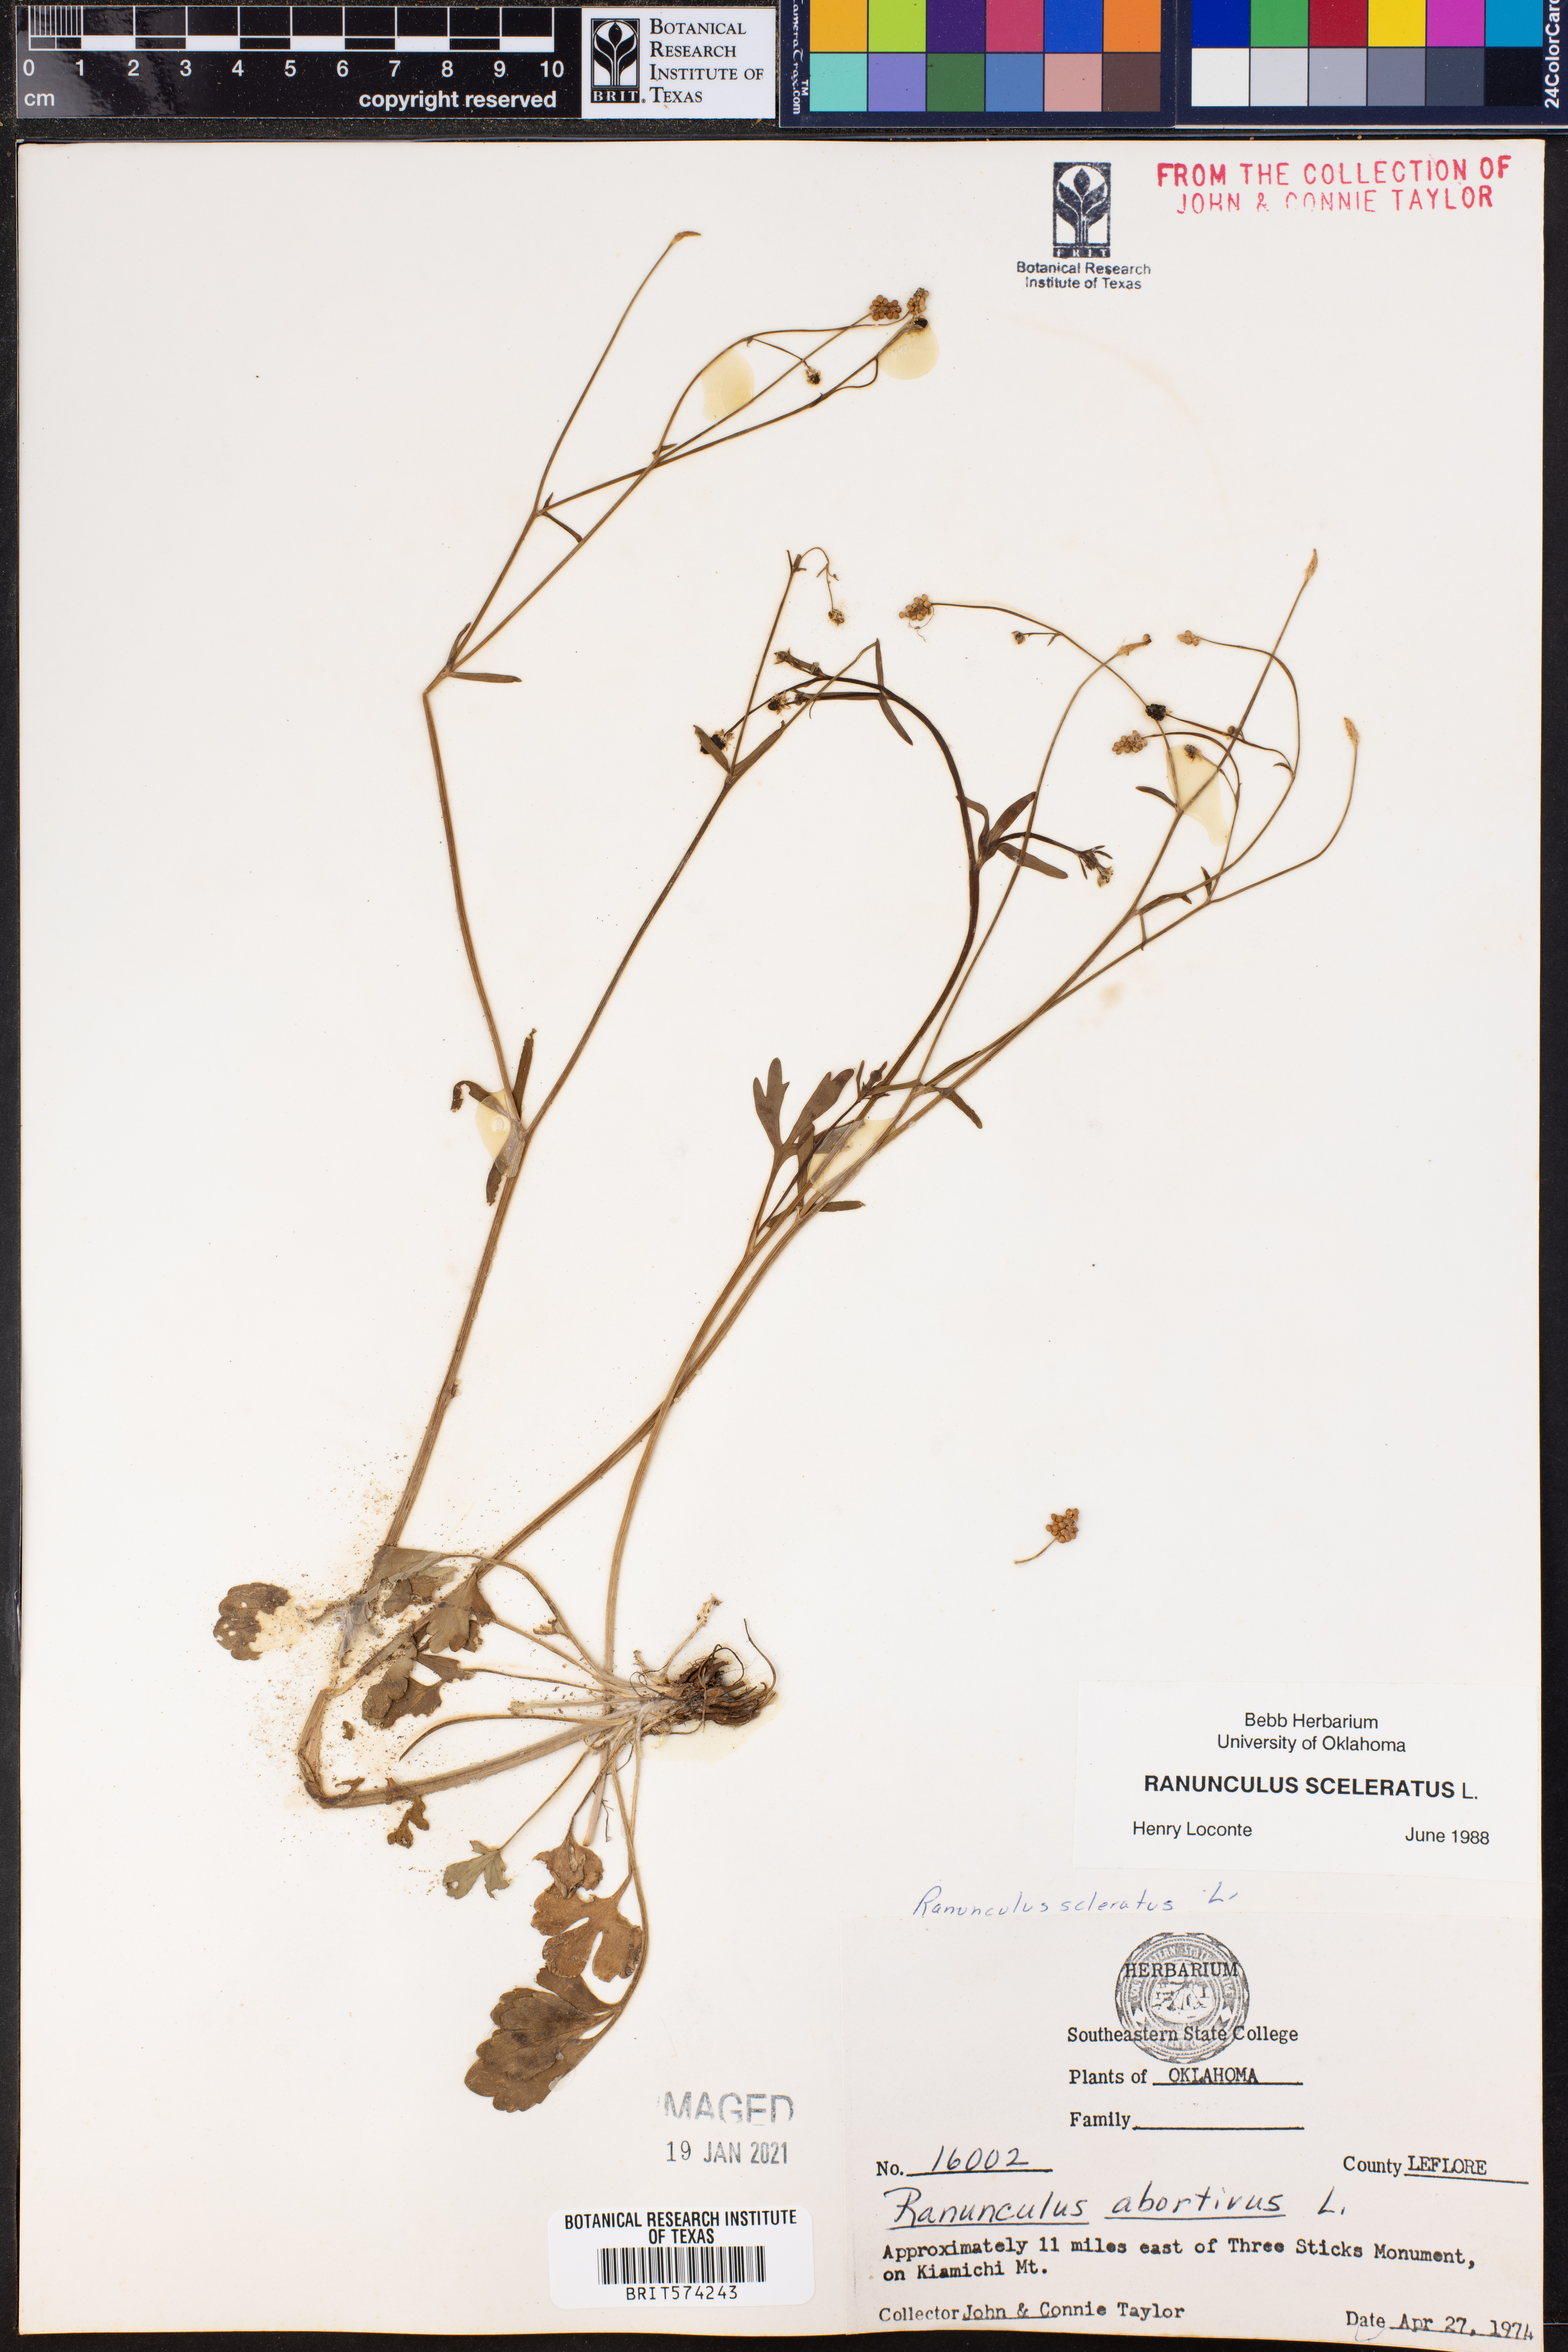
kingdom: Plantae
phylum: Tracheophyta
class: Magnoliopsida
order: Ranunculales
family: Ranunculaceae
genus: Ranunculus
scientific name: Ranunculus sceleratus
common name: Celery-leaved buttercup
